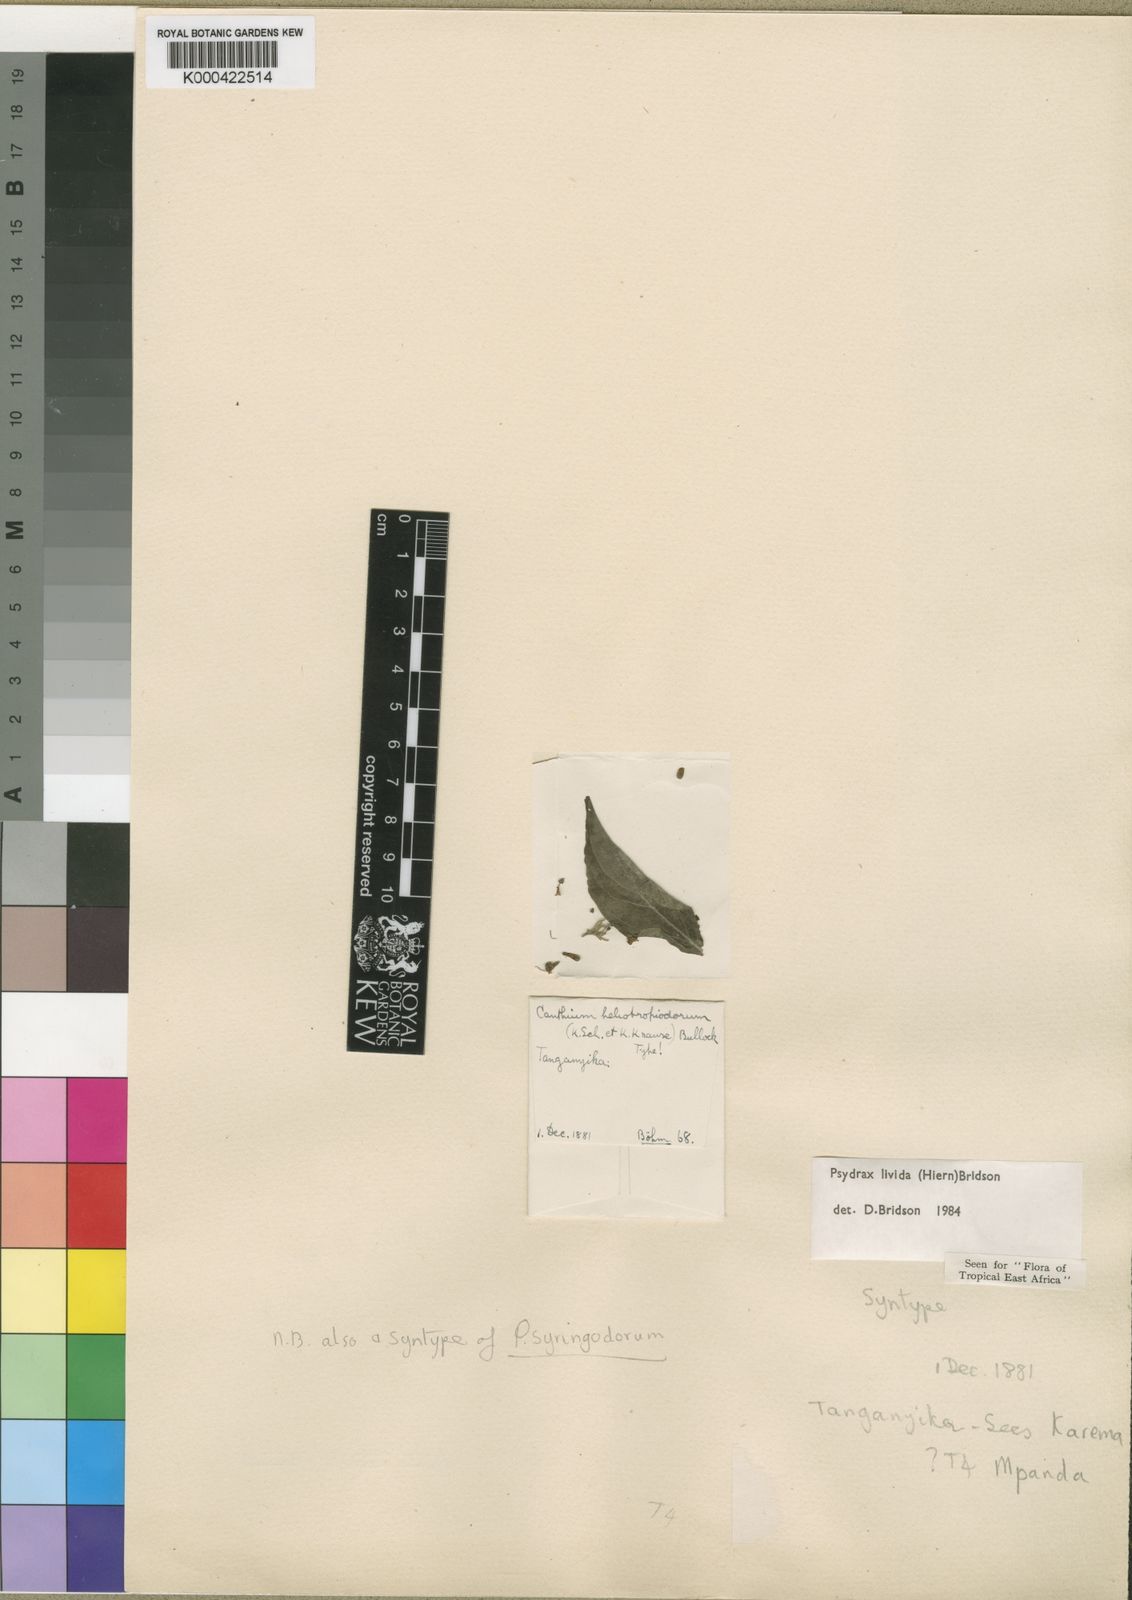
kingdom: Plantae
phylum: Tracheophyta
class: Magnoliopsida
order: Gentianales
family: Rubiaceae
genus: Psydrax
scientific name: Psydrax lividus
